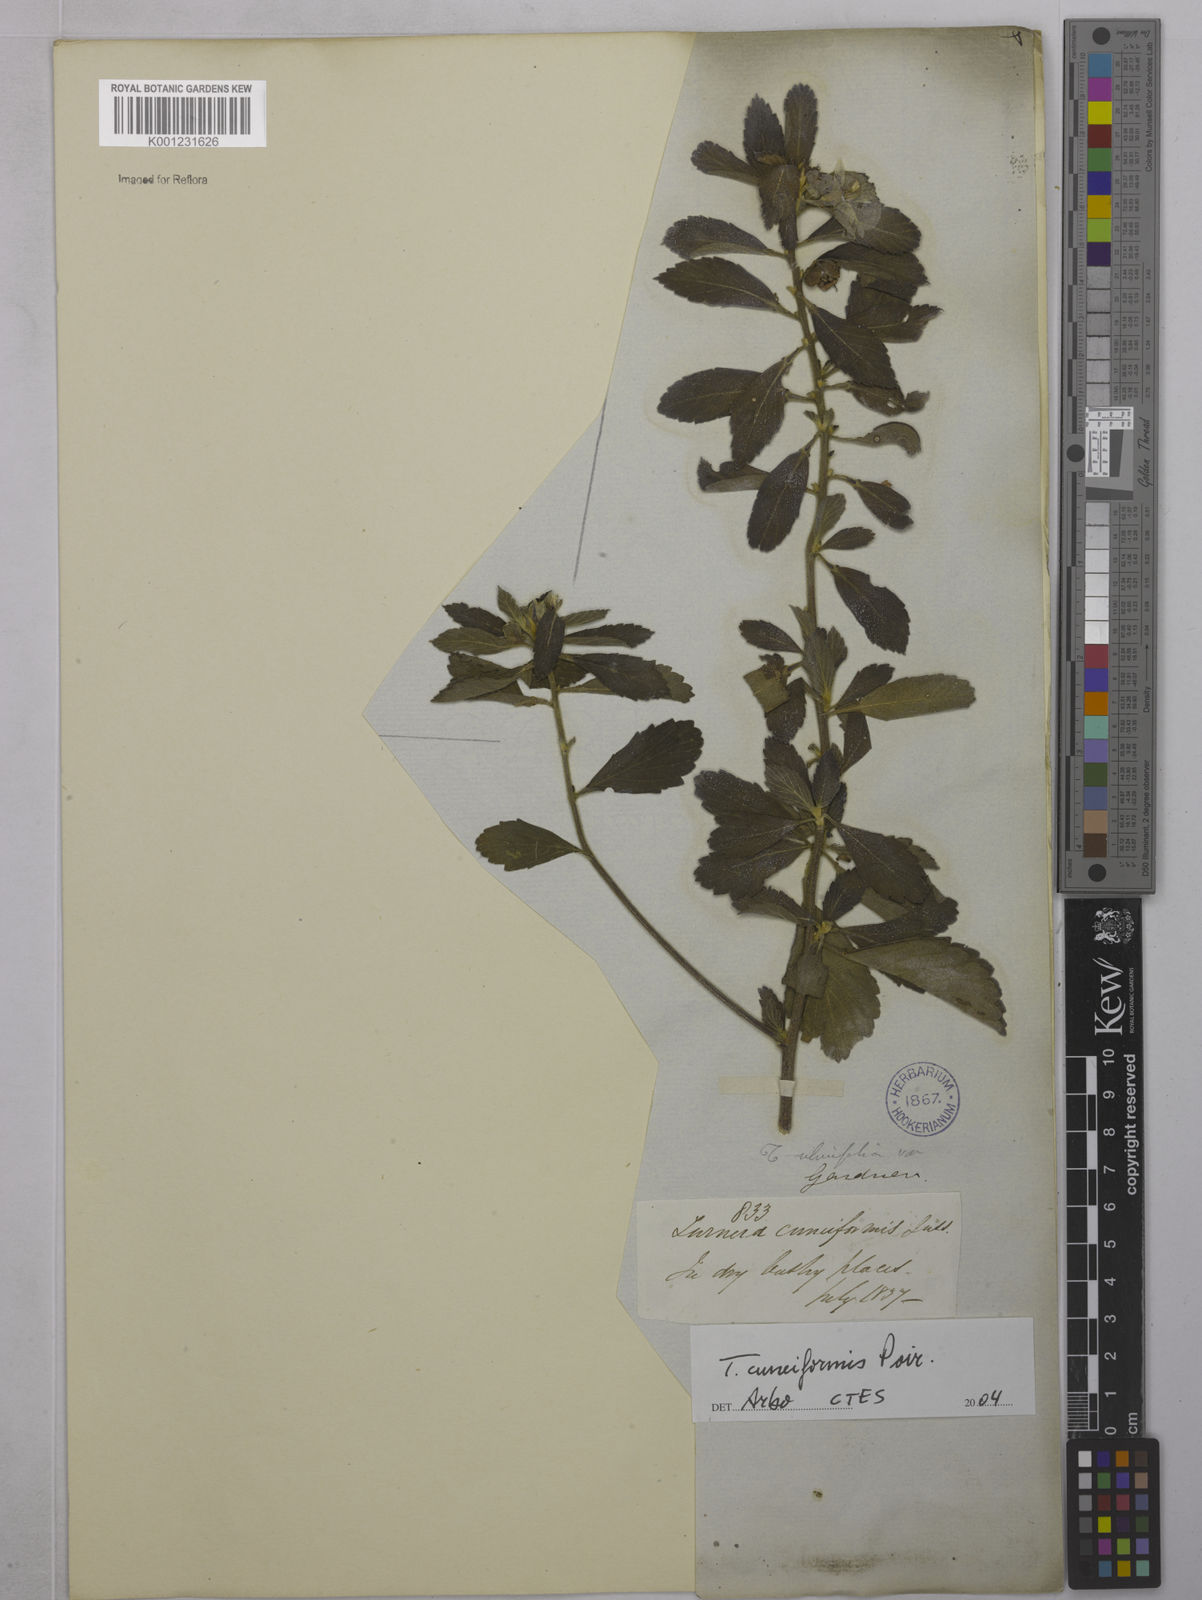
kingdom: Plantae
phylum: Tracheophyta
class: Magnoliopsida
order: Malpighiales
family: Turneraceae
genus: Turnera
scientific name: Turnera cuneiformis
